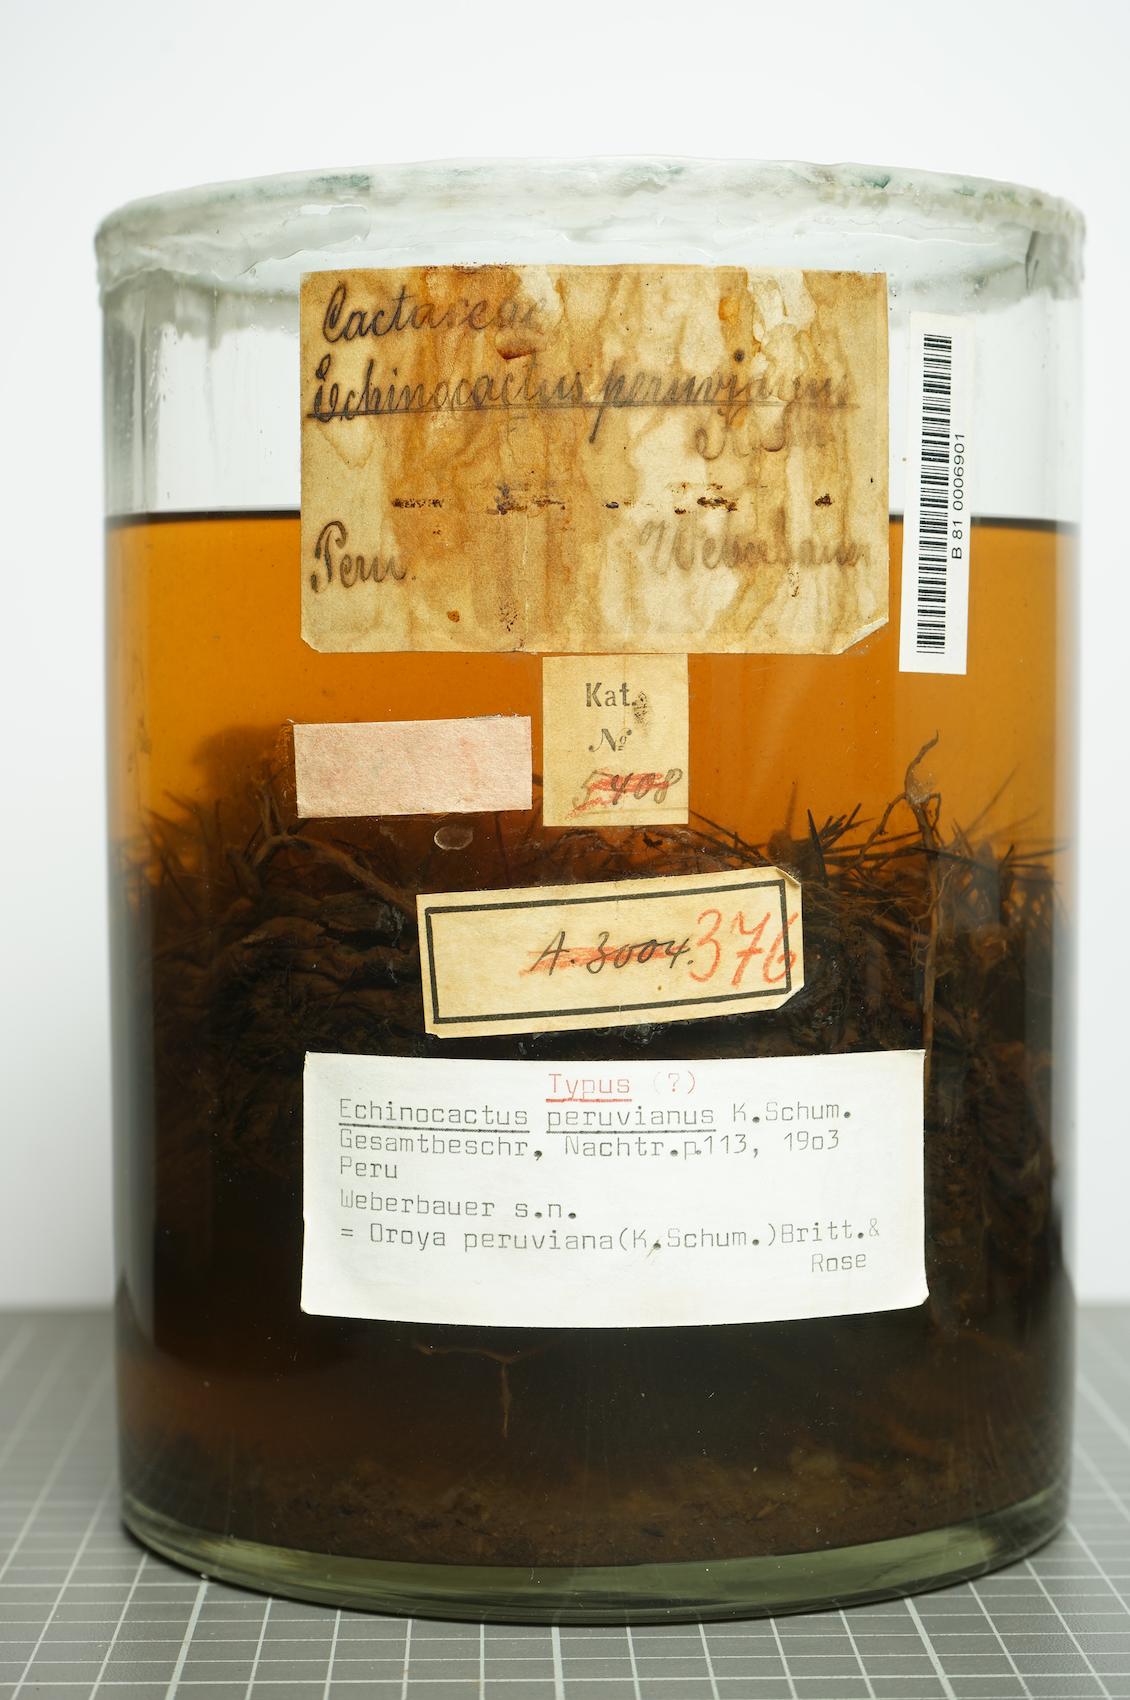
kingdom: Plantae
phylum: Tracheophyta
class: Magnoliopsida
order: Caryophyllales
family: Cactaceae
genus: Oroya
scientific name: Oroya peruviana
